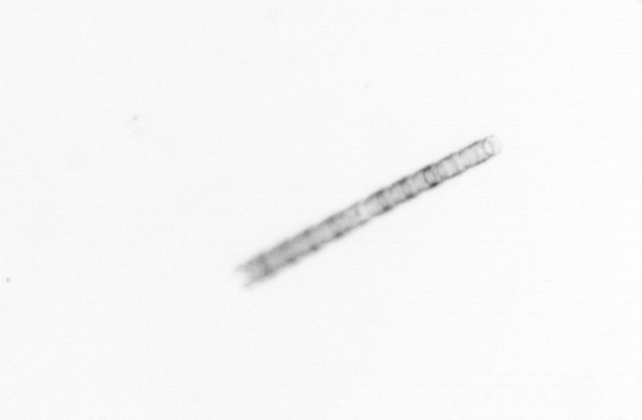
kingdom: Chromista
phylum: Ochrophyta
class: Bacillariophyceae
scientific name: Bacillariophyceae
